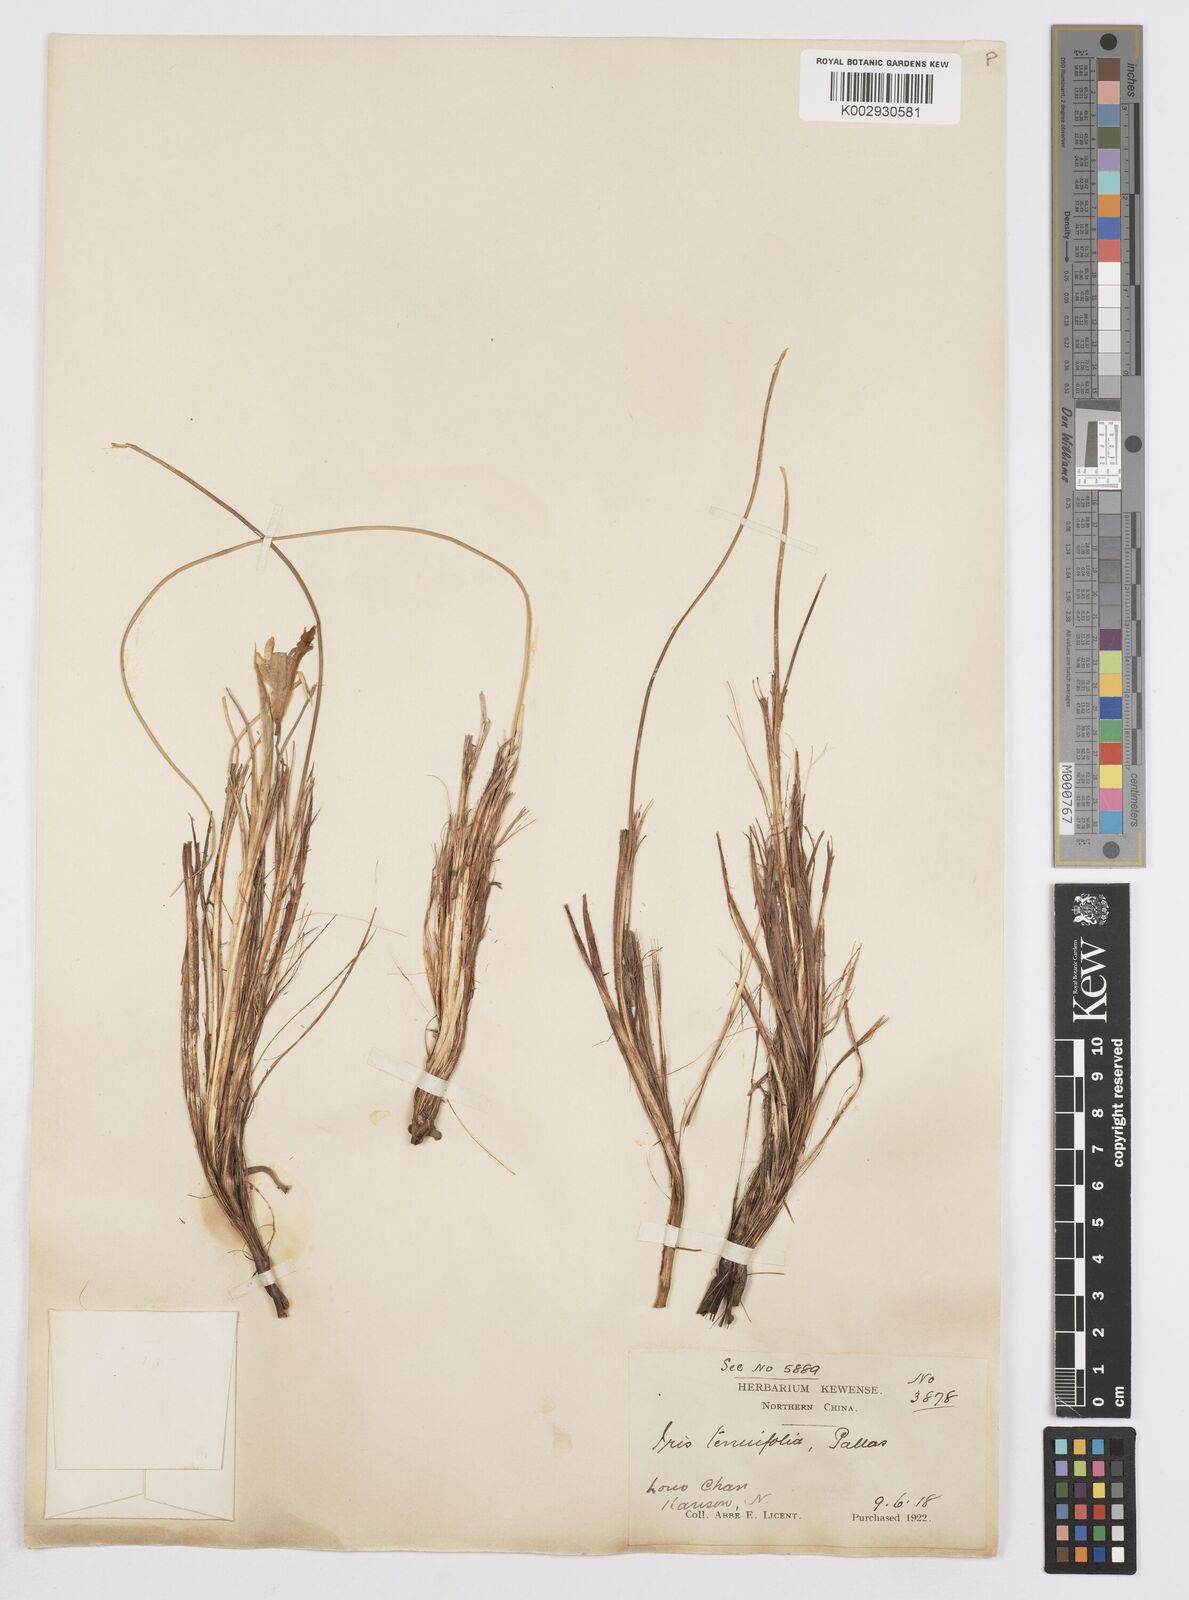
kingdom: Plantae
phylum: Tracheophyta
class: Liliopsida
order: Asparagales
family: Iridaceae
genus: Iris
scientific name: Iris tenuifolia
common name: Slender-leaf iris
